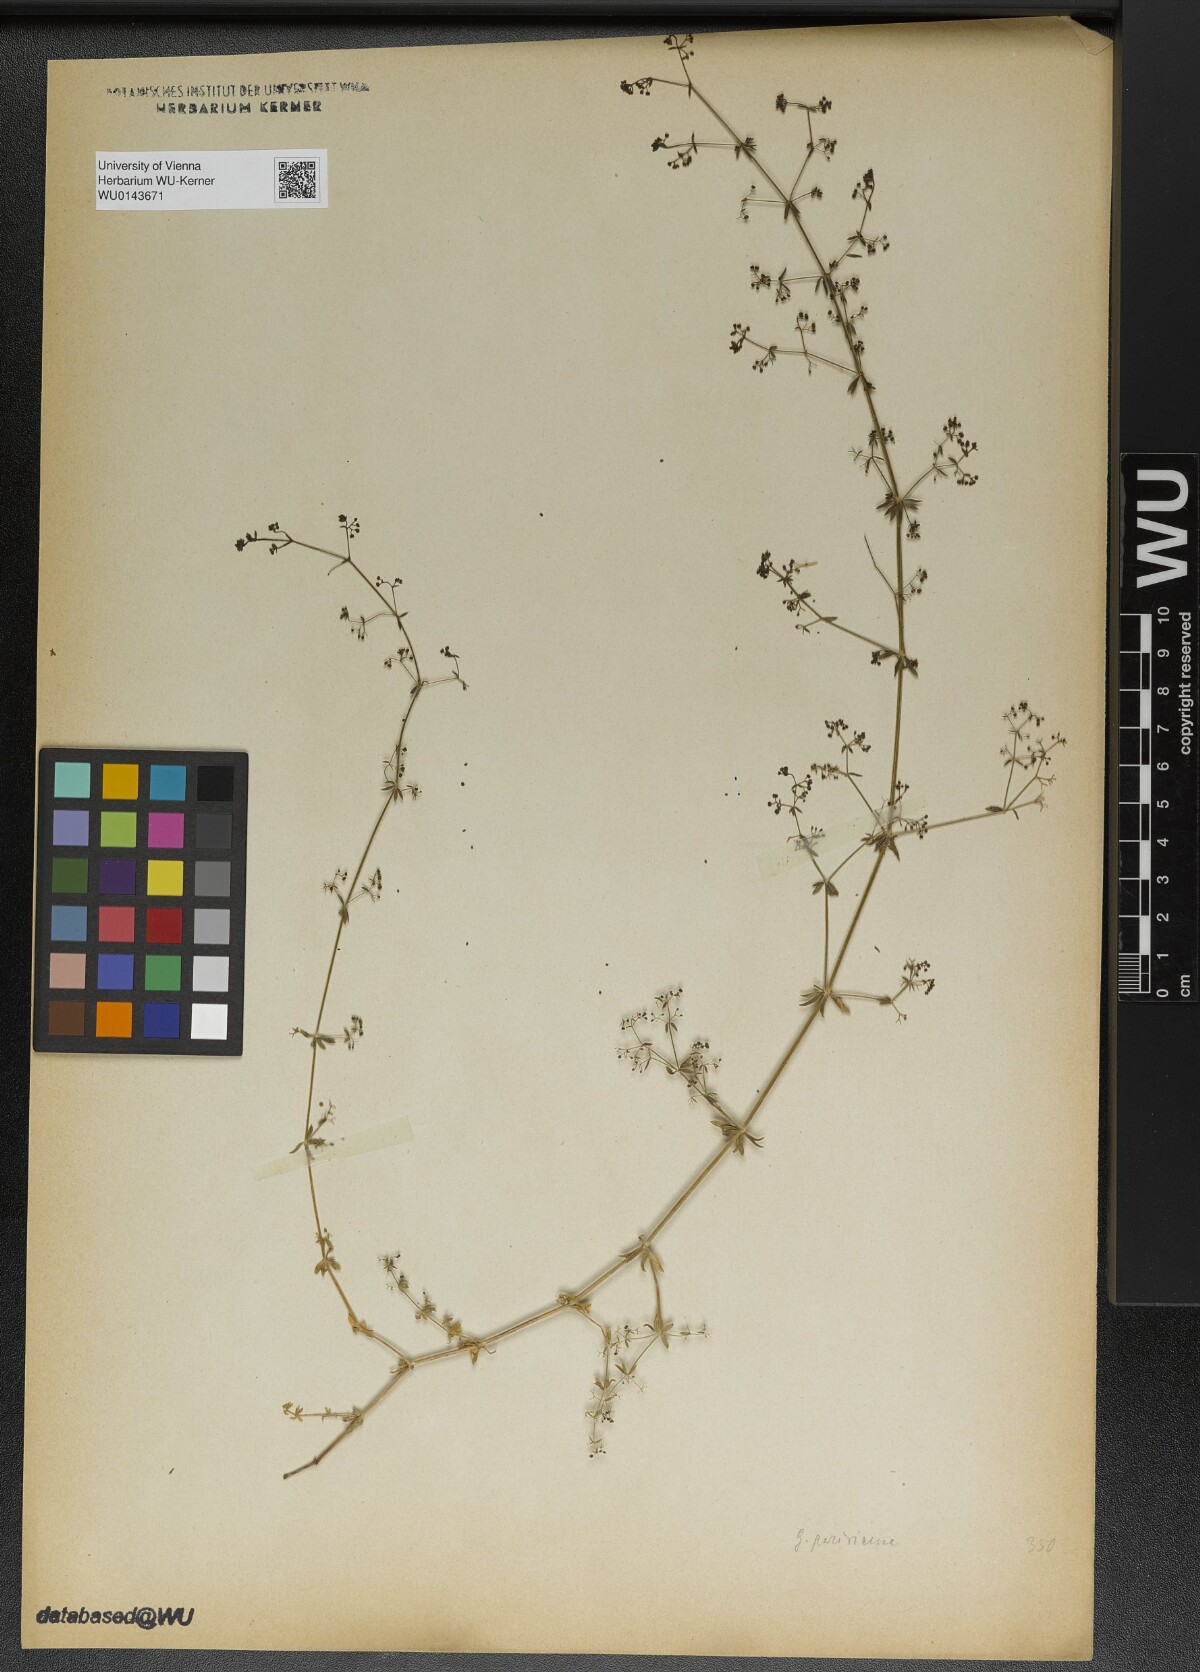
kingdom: Plantae
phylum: Tracheophyta
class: Magnoliopsida
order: Gentianales
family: Rubiaceae
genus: Galium
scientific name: Galium parisiense
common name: Wall bedstraw
